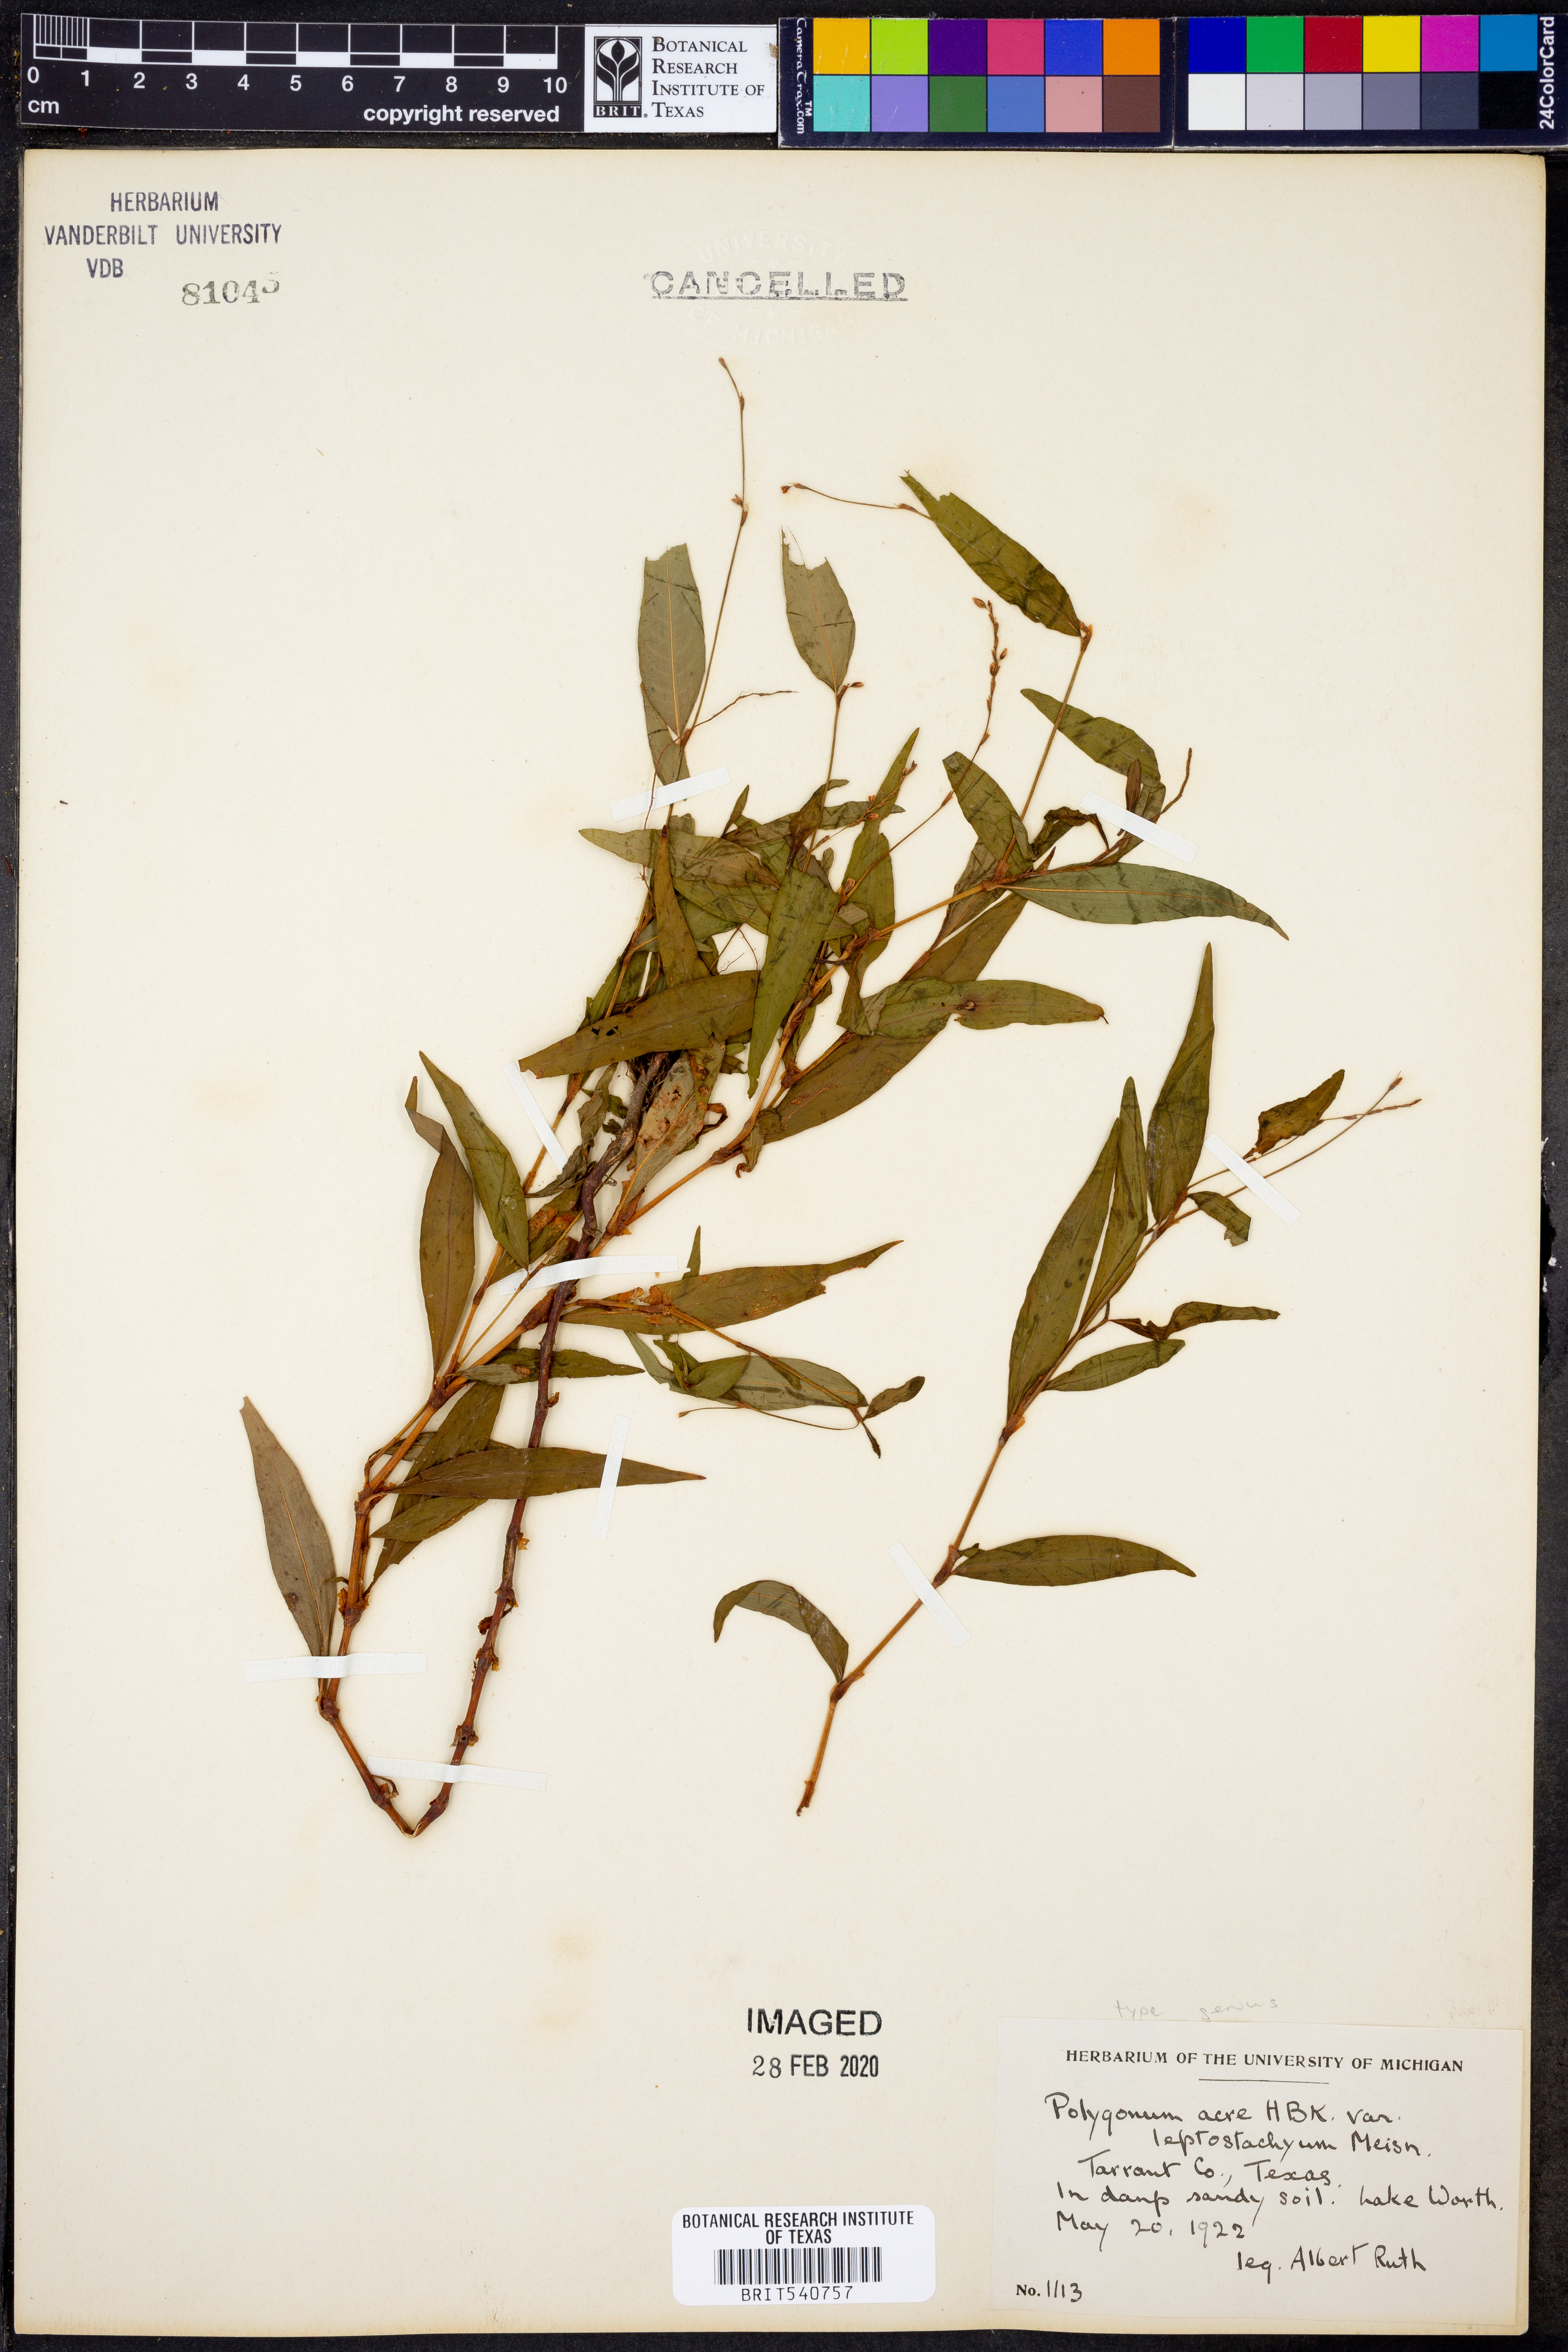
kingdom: Plantae
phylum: Tracheophyta
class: Magnoliopsida
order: Caryophyllales
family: Polygonaceae
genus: Persicaria
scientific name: Persicaria punctata
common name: Dotted smartweed
